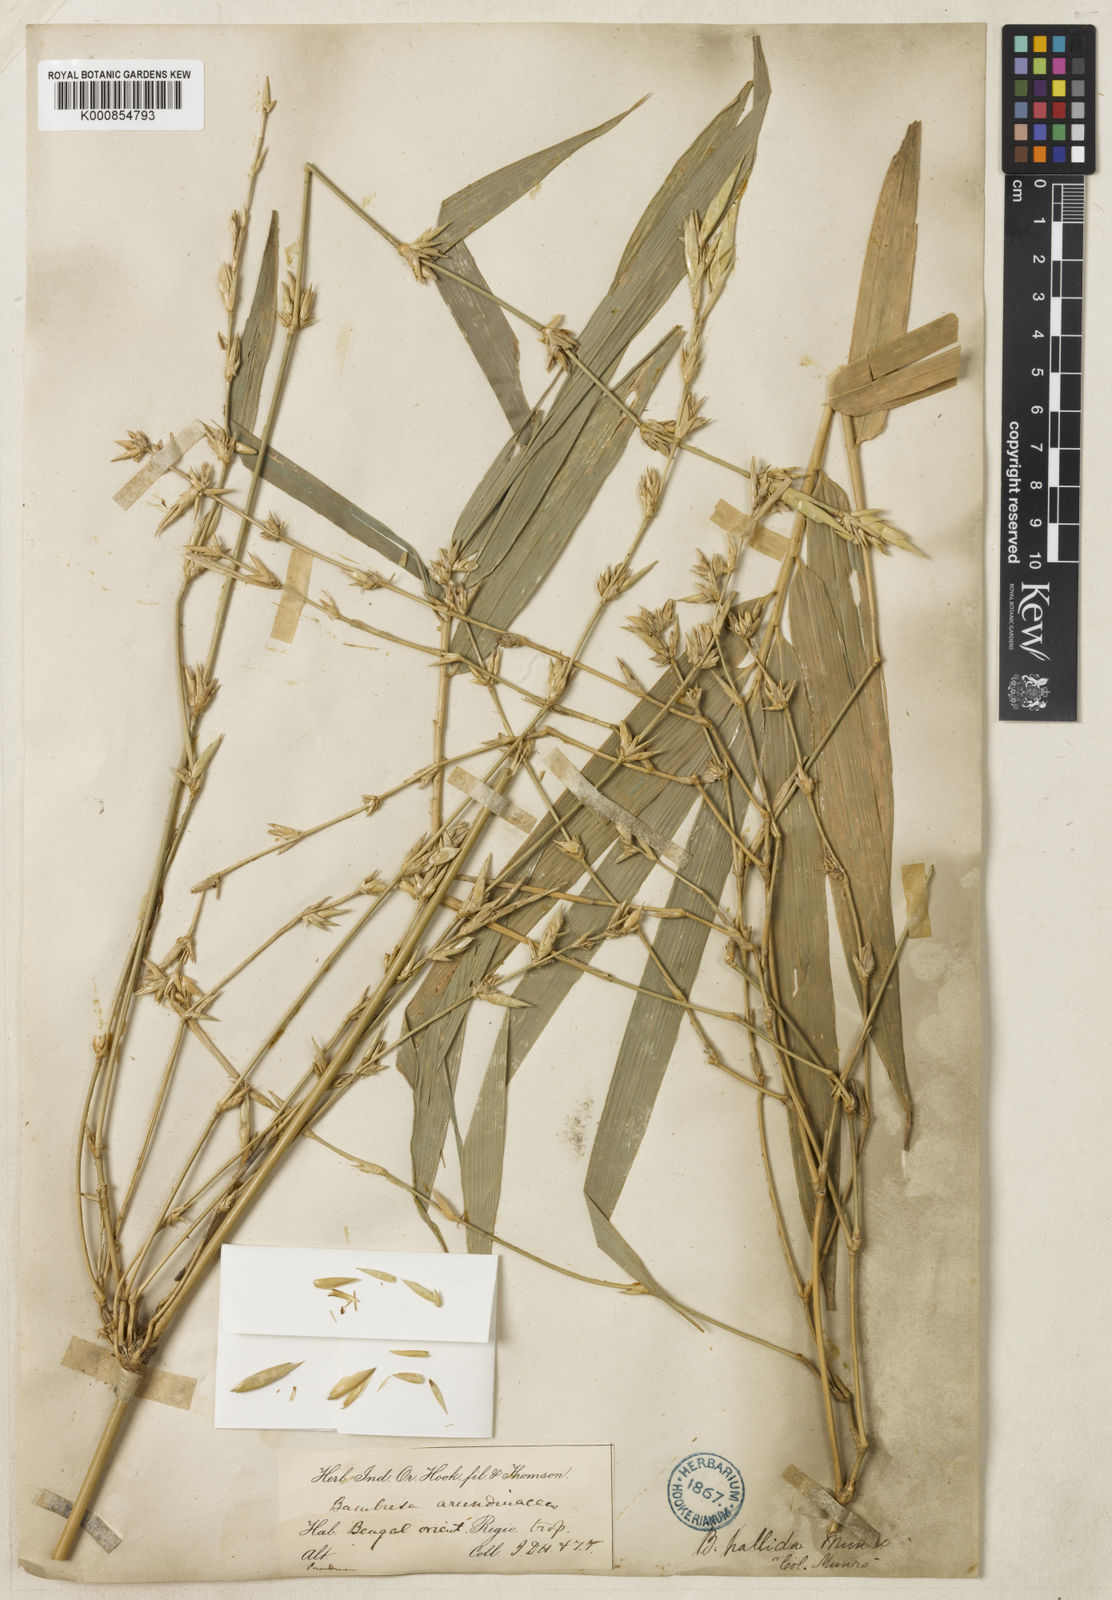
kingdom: Plantae
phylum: Tracheophyta
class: Liliopsida
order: Poales
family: Poaceae
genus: Bambusa
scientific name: Bambusa pallida
